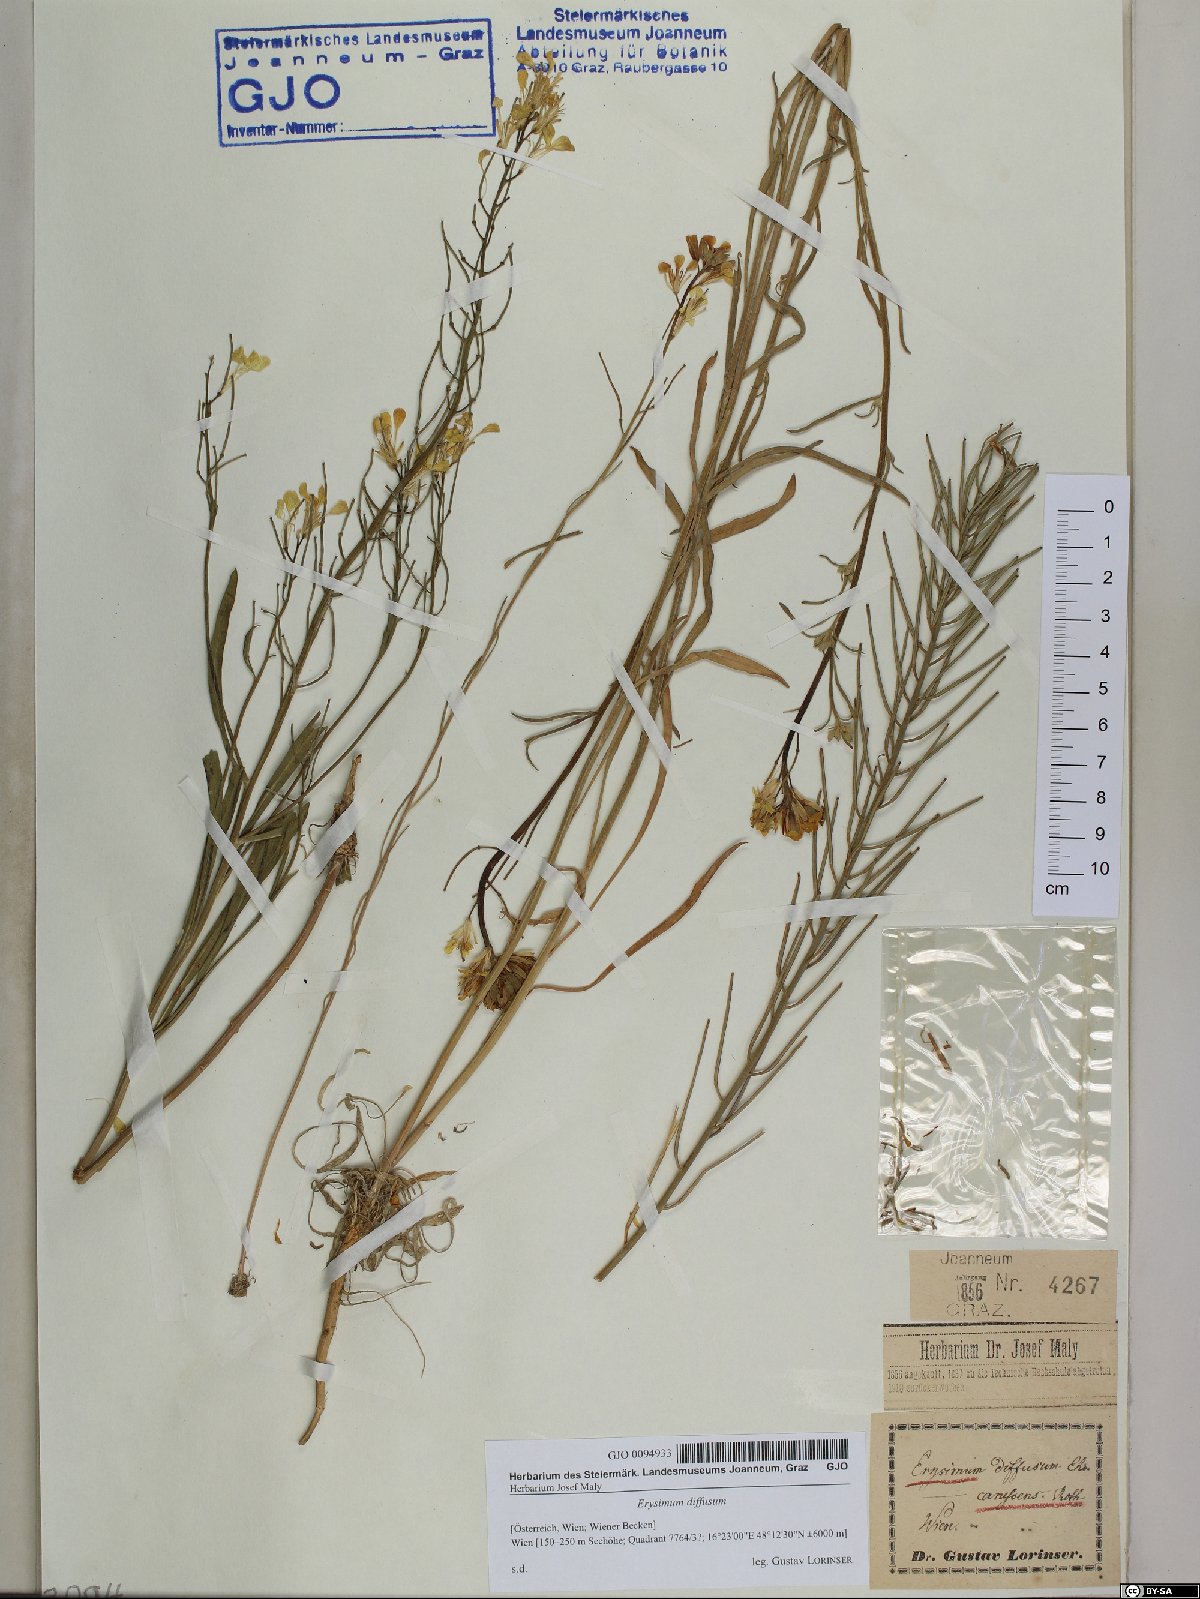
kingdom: Plantae
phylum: Tracheophyta
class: Magnoliopsida
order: Brassicales
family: Brassicaceae
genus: Erysimum
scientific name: Erysimum diffusum
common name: Diffuse wallflower
